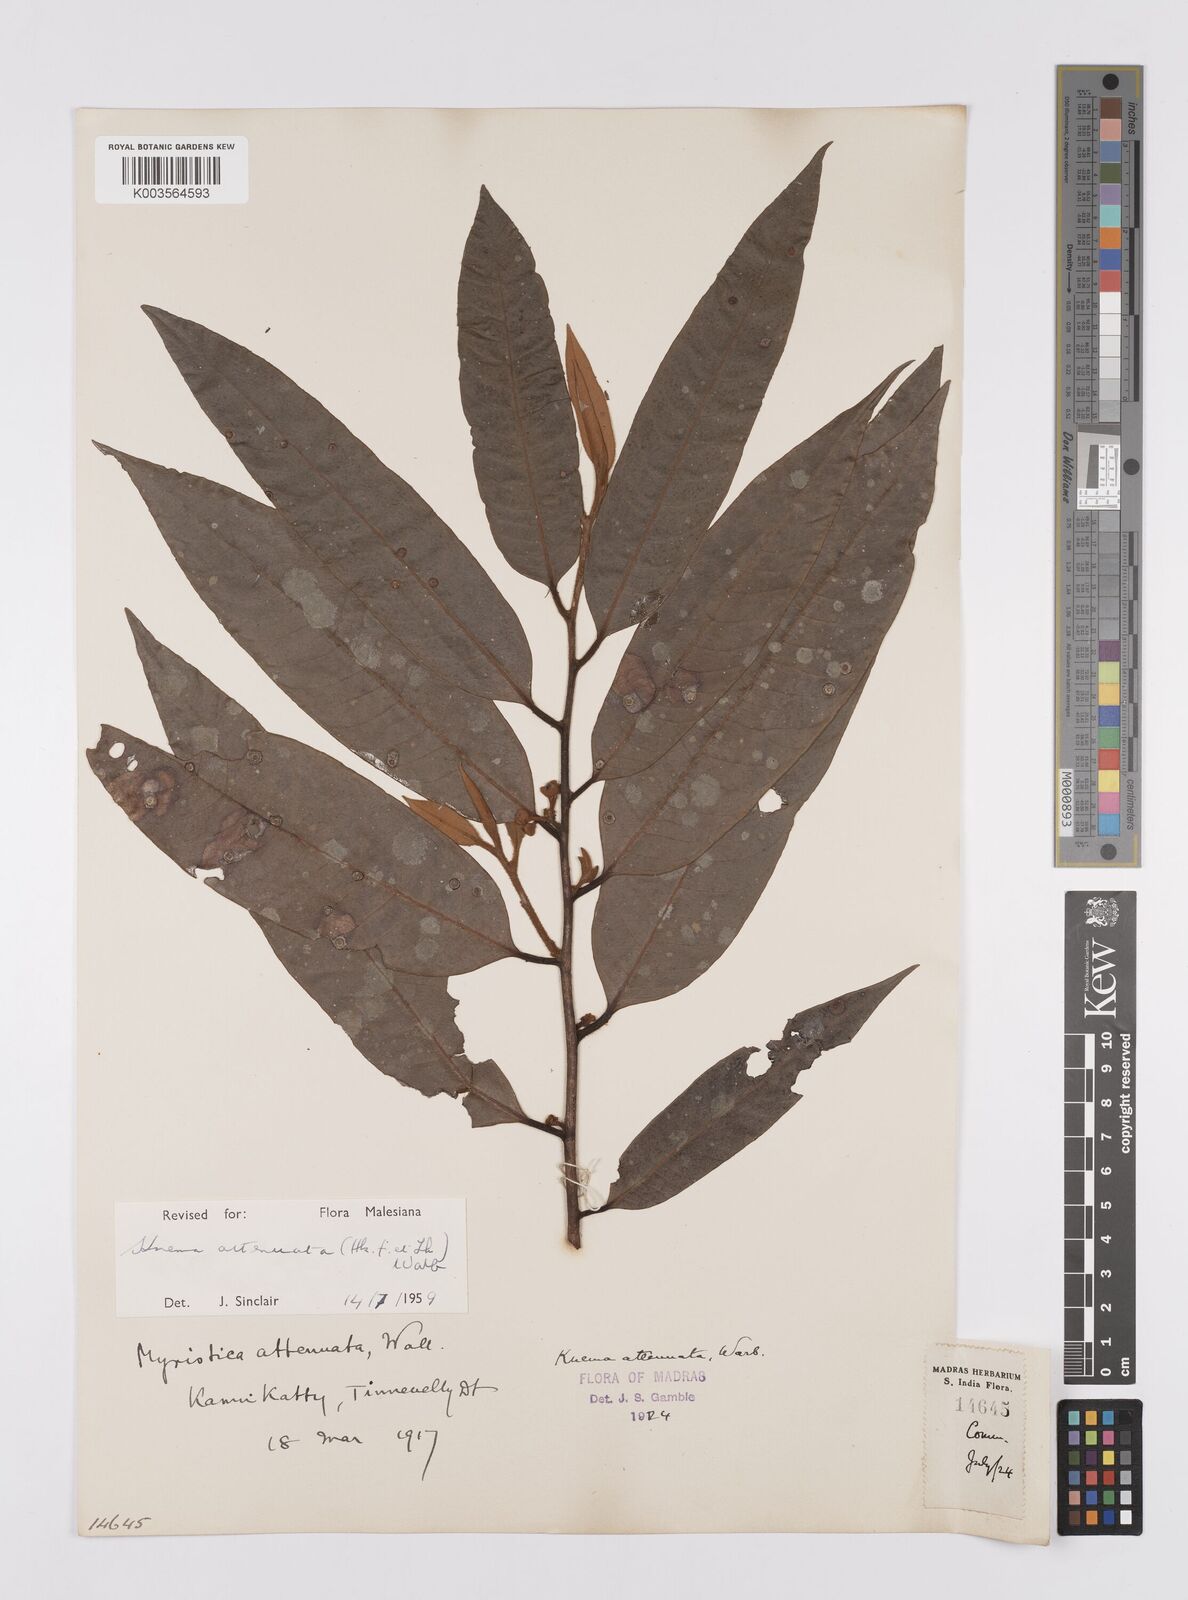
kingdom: Plantae
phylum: Tracheophyta
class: Magnoliopsida
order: Magnoliales
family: Myristicaceae
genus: Knema
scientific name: Knema attenuata
